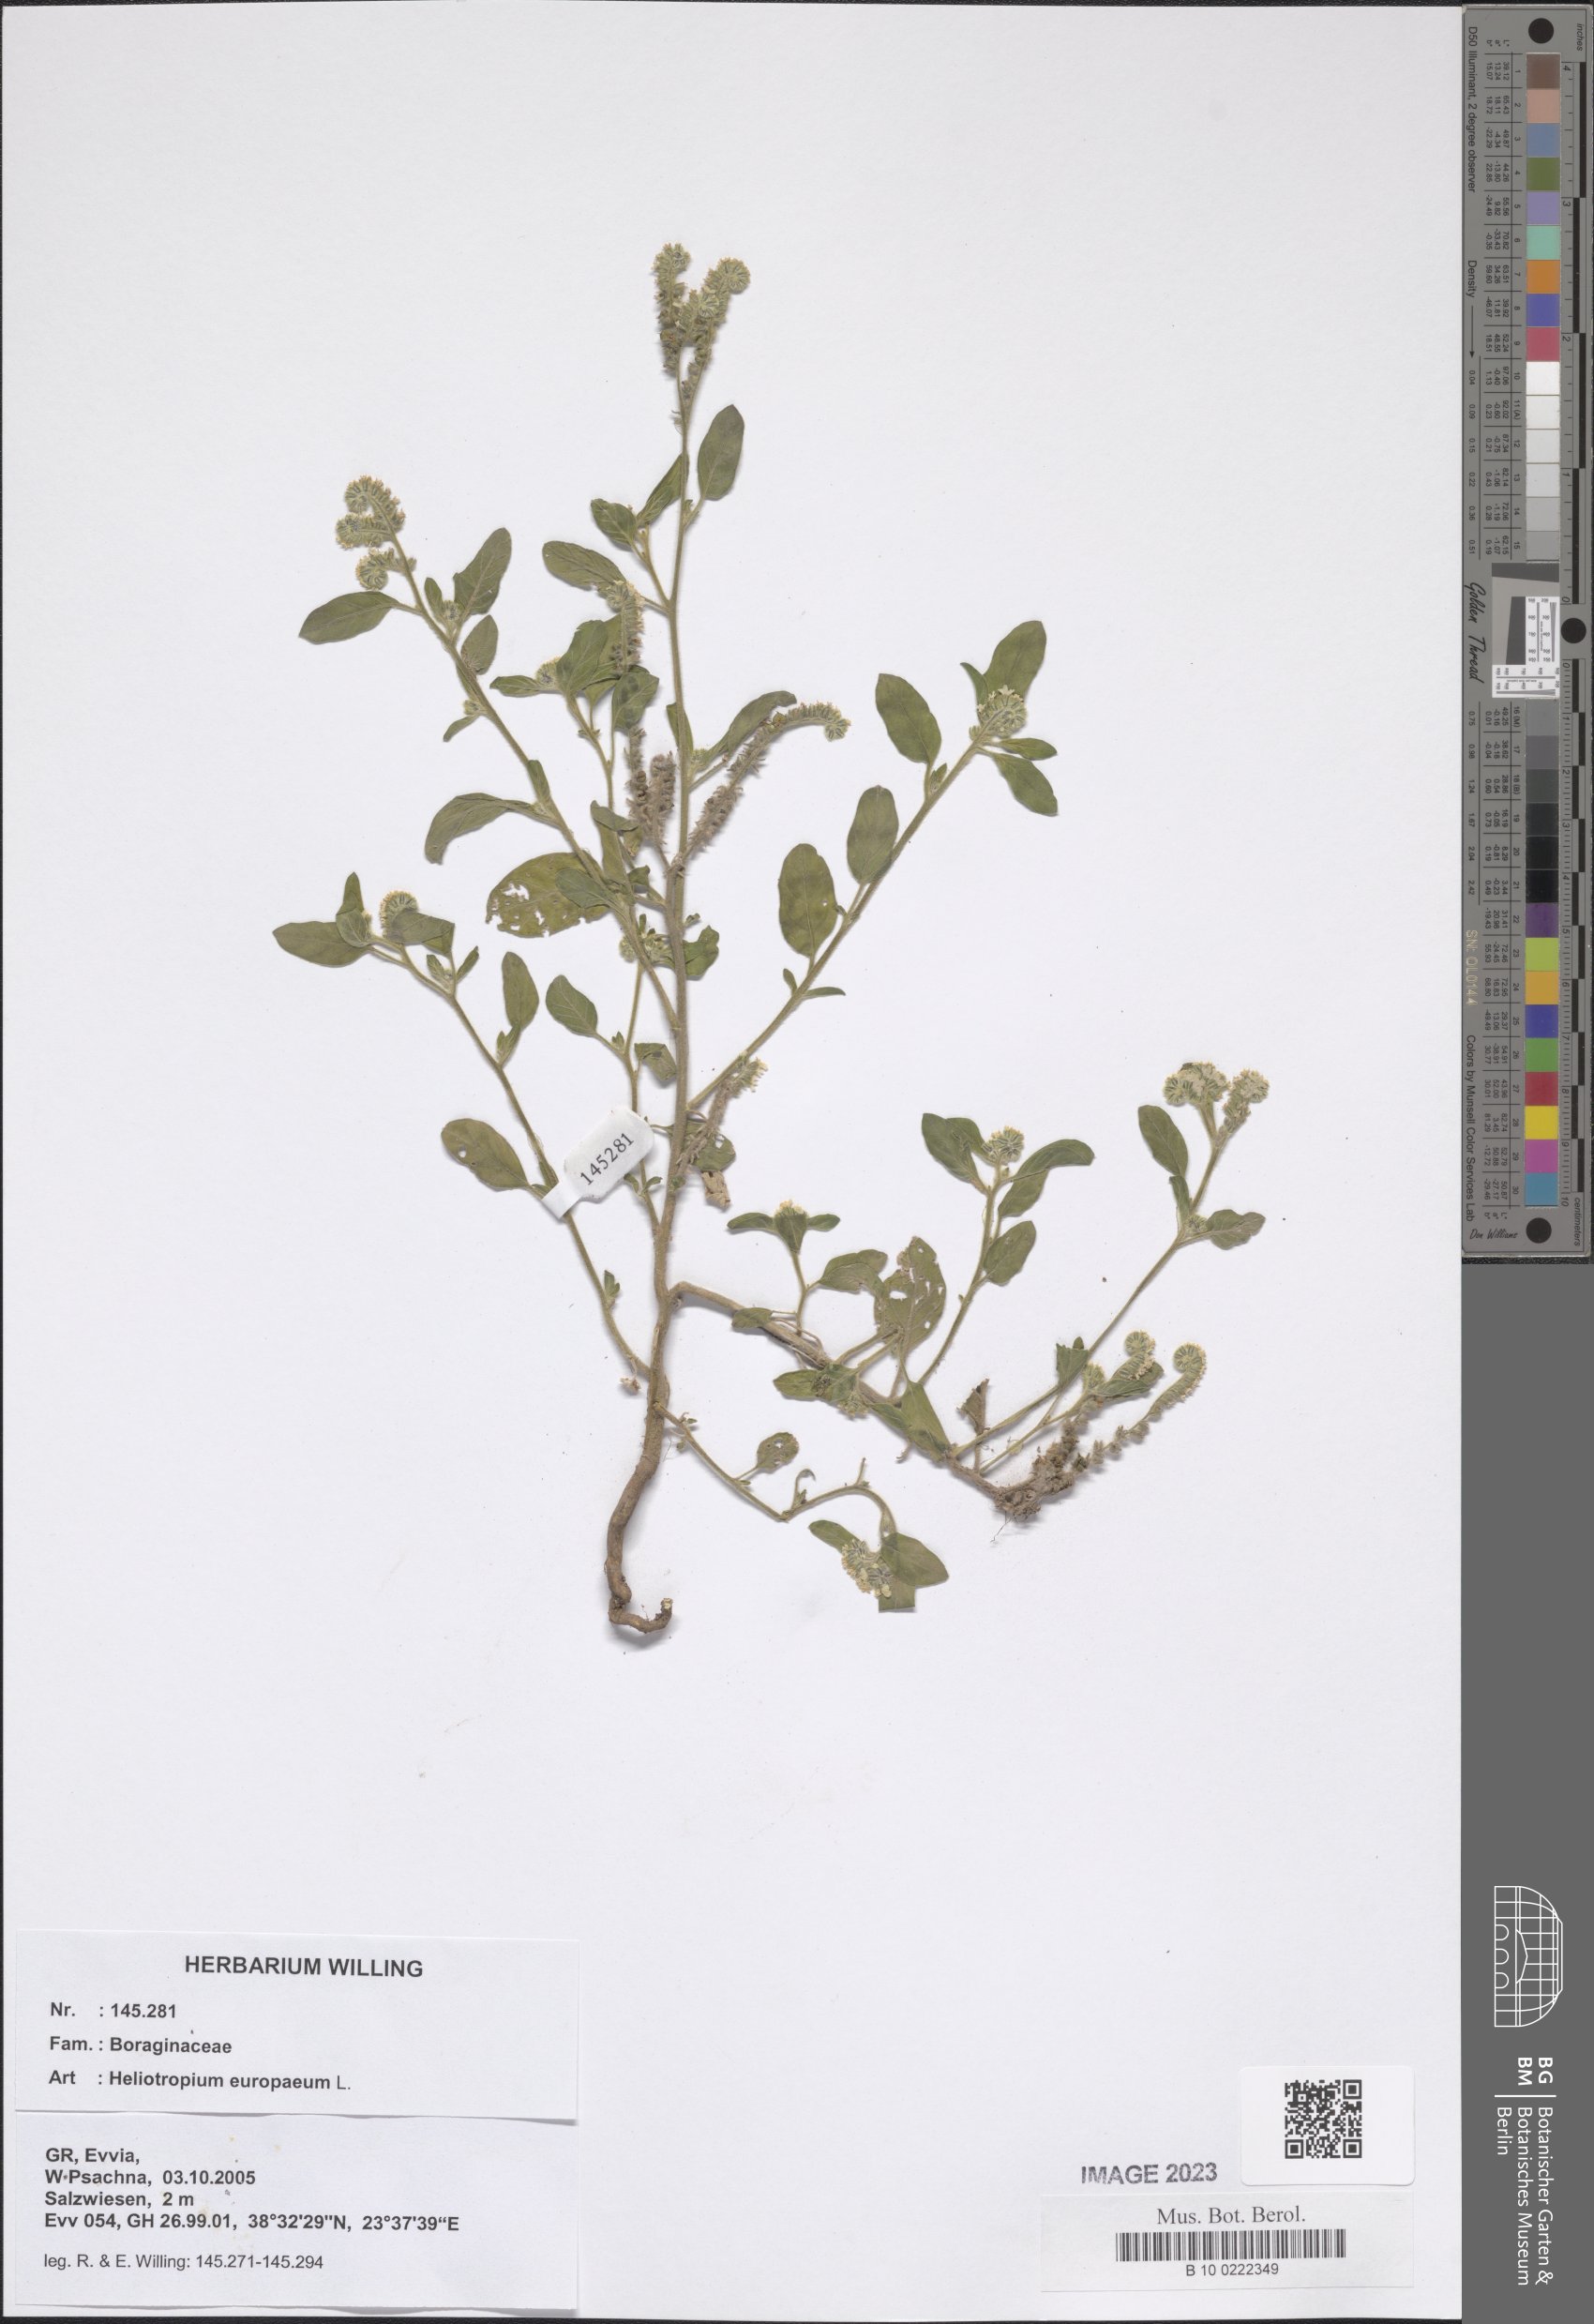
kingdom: Plantae
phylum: Tracheophyta
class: Magnoliopsida
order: Boraginales
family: Heliotropiaceae
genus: Heliotropium
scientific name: Heliotropium europaeum
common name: European heliotrope
